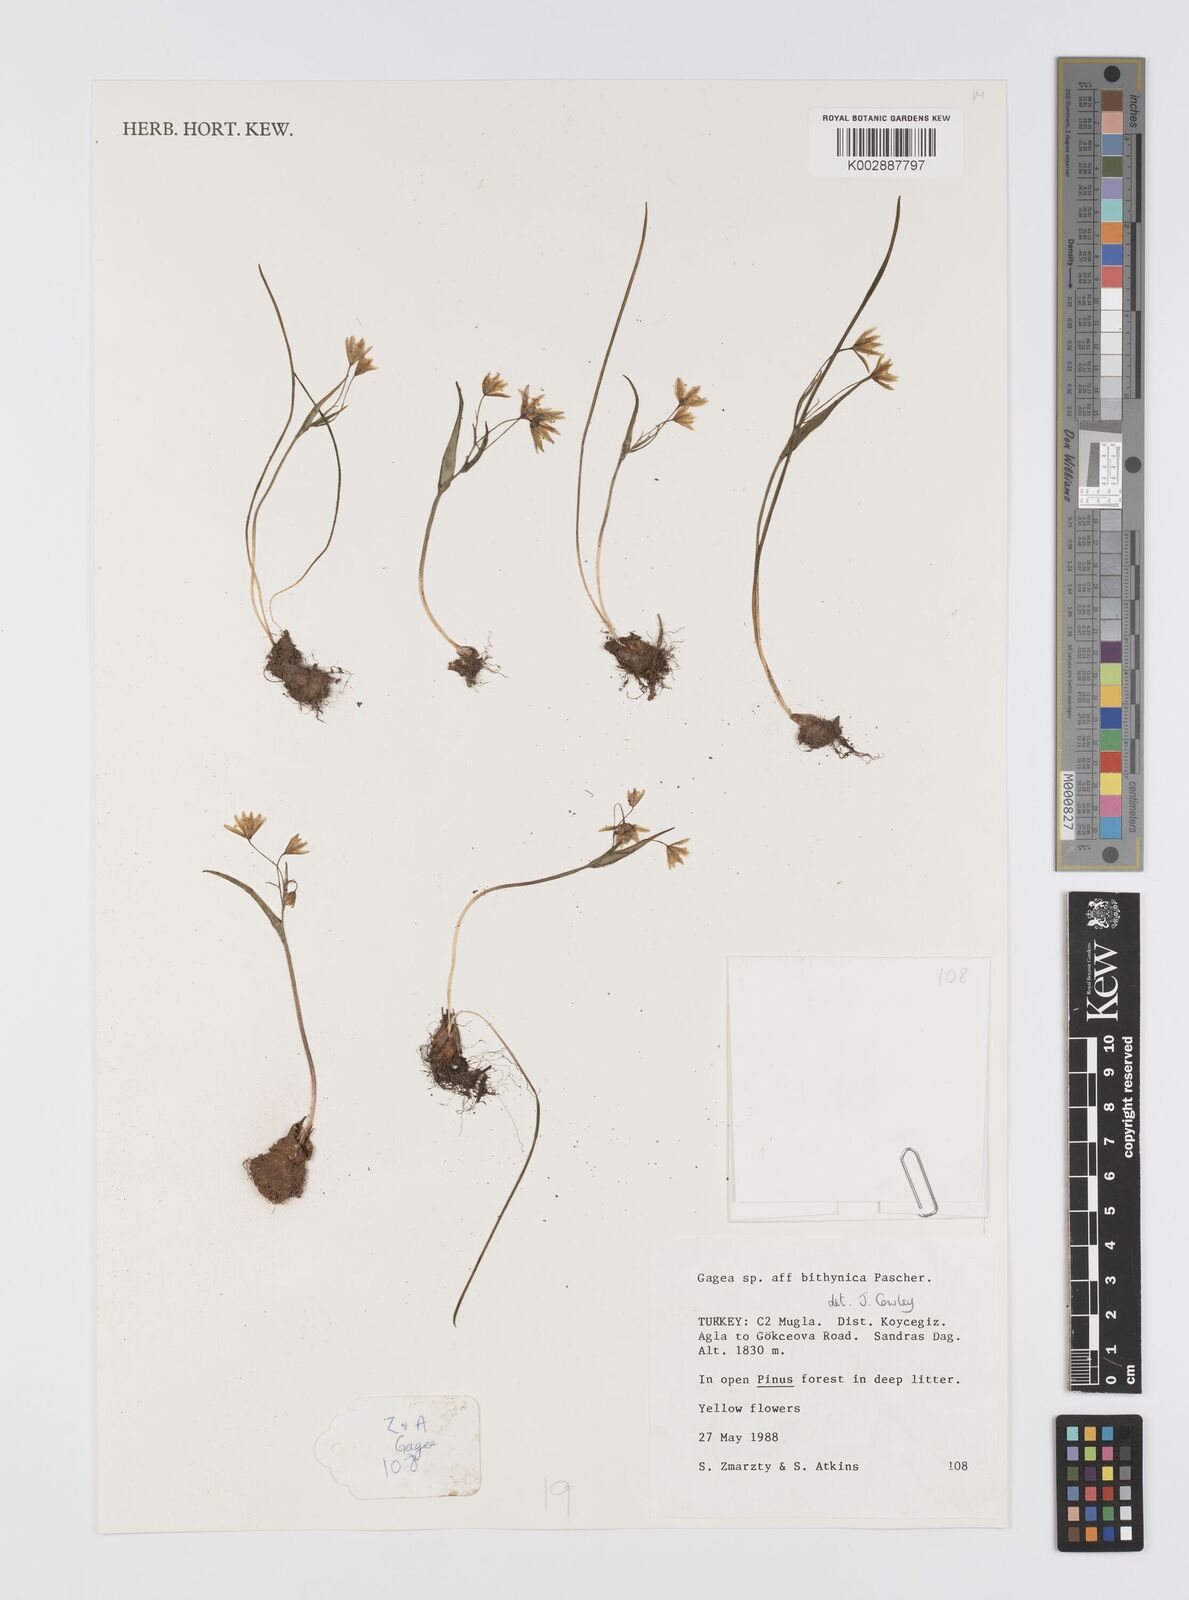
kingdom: Plantae
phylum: Tracheophyta
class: Liliopsida
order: Liliales
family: Liliaceae
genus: Gagea
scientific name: Gagea bithynica
